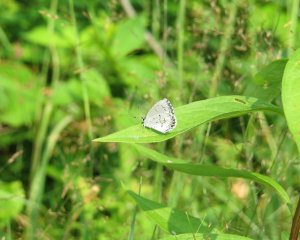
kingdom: Animalia
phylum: Arthropoda
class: Insecta
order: Lepidoptera
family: Lycaenidae
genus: Celastrina
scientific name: Celastrina lucia
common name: Northern Spring Azure
